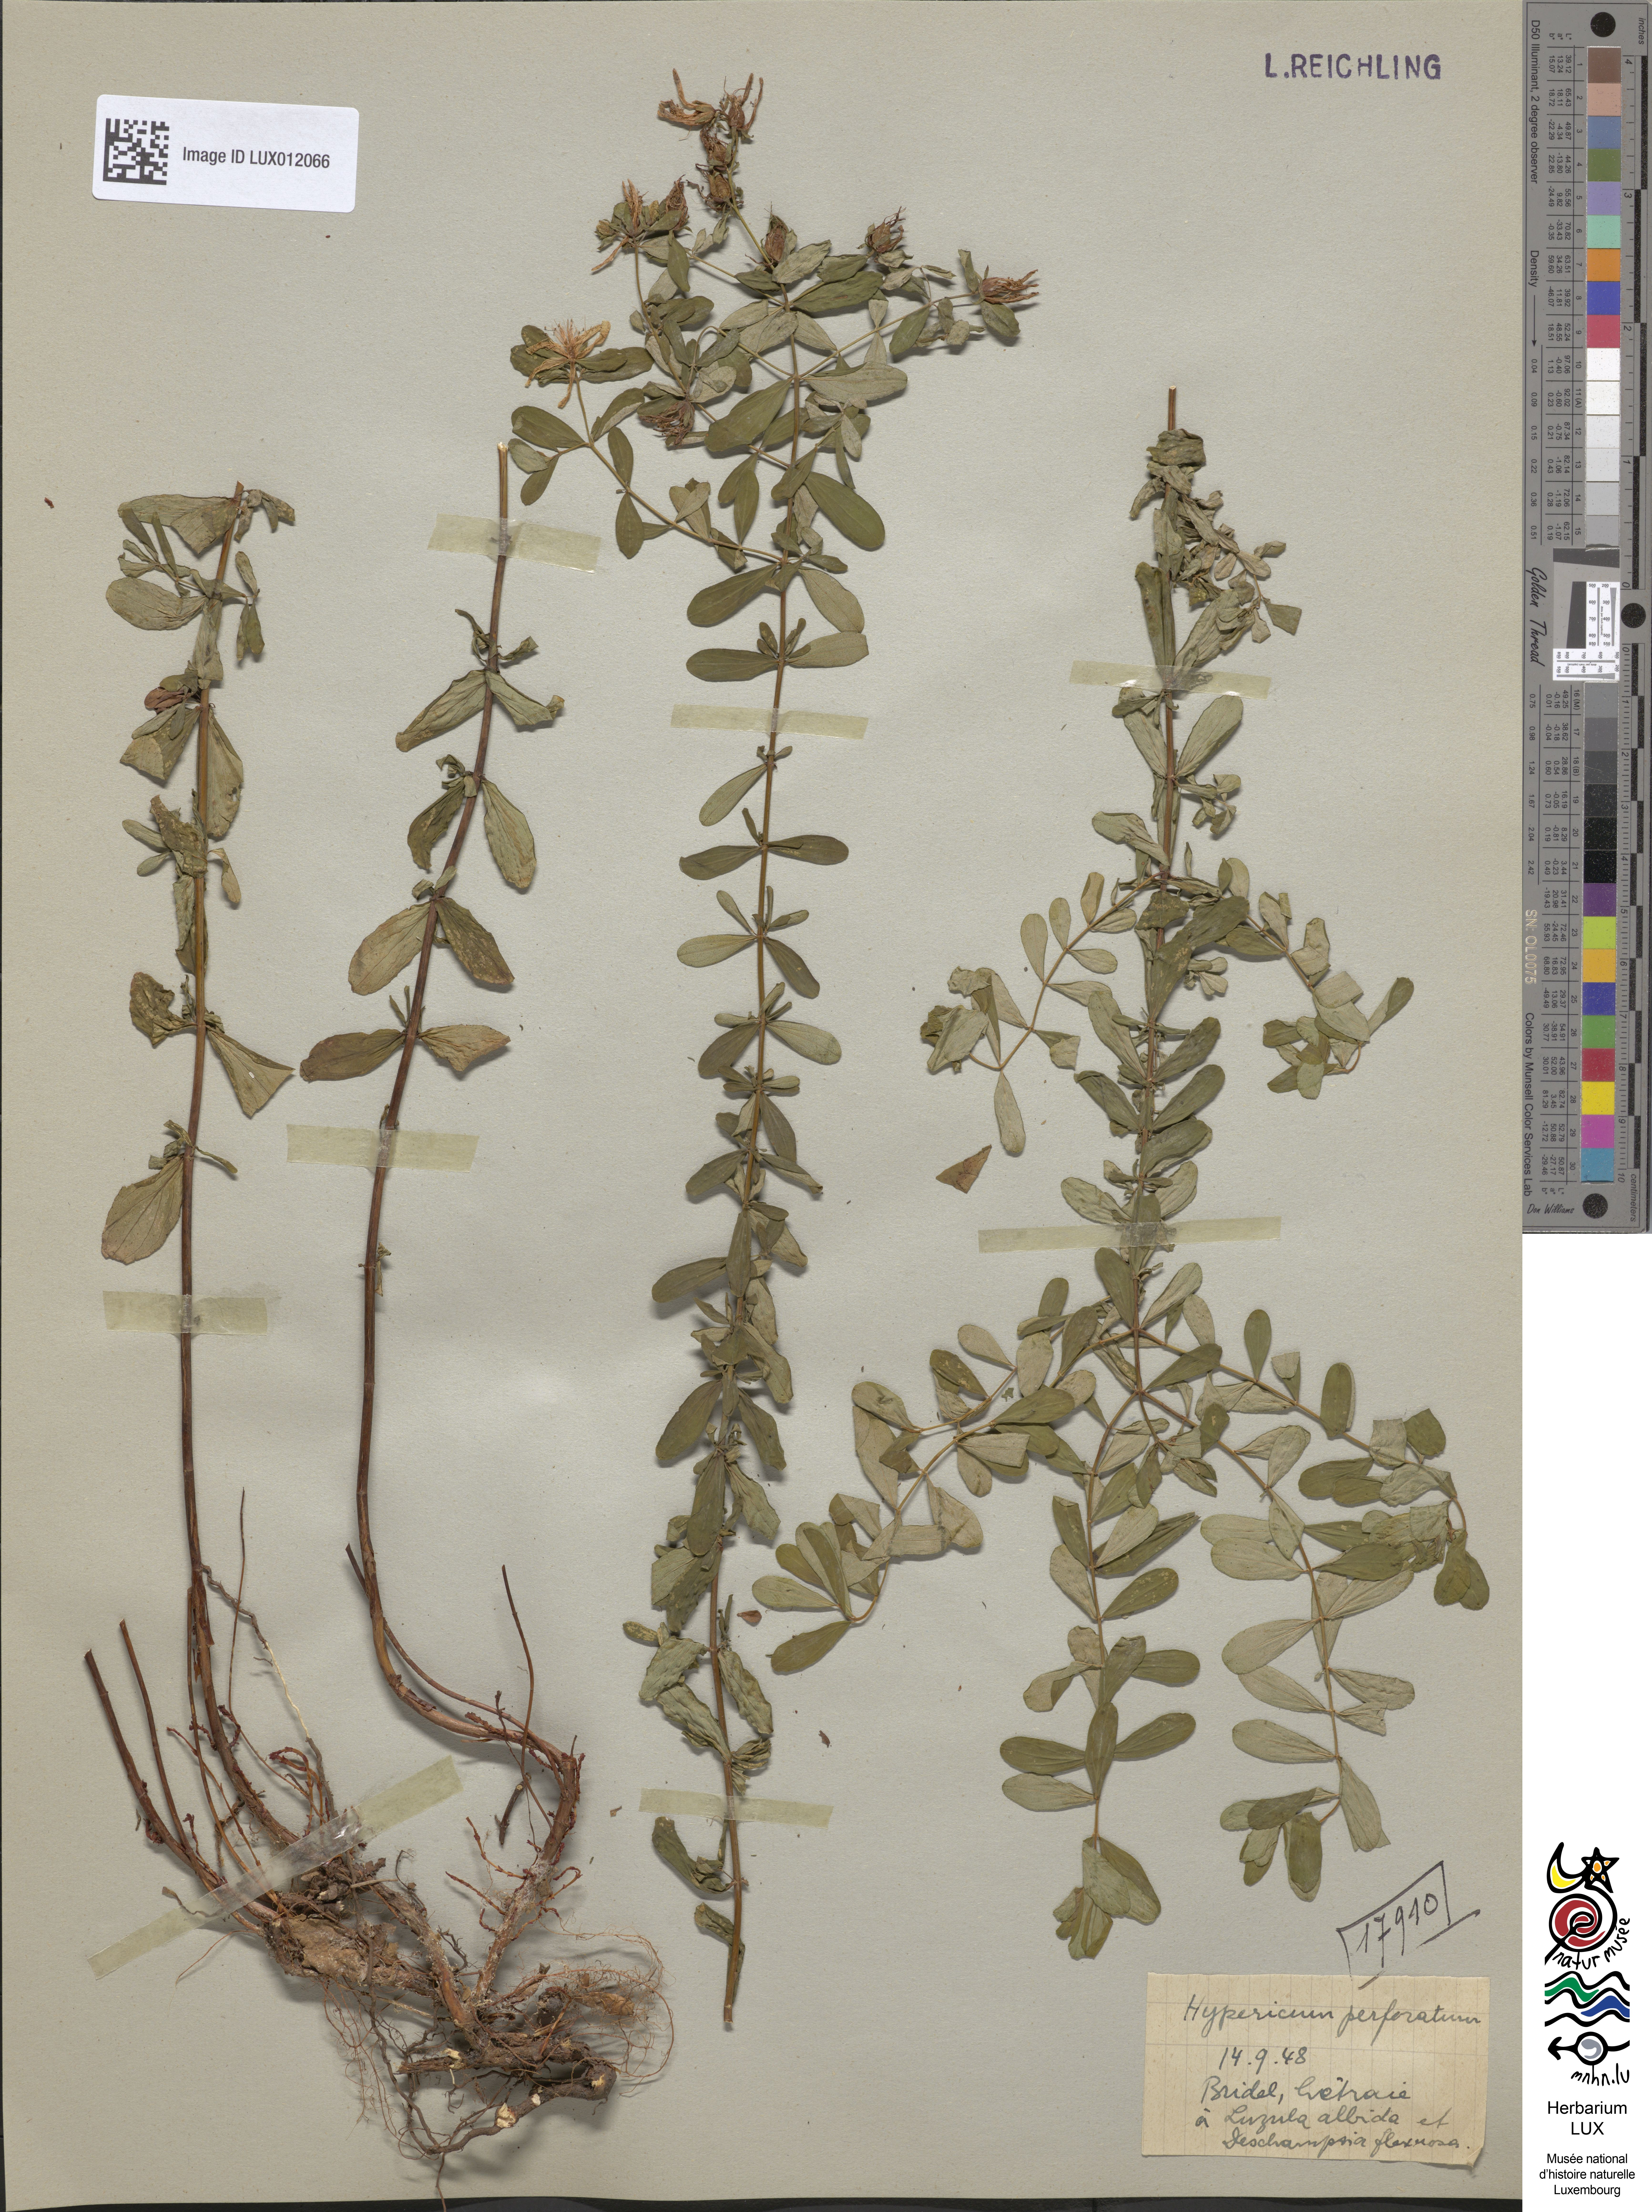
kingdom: Plantae
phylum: Tracheophyta
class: Magnoliopsida
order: Malpighiales
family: Hypericaceae
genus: Hypericum
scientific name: Hypericum perforatum
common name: Common st. johnswort
